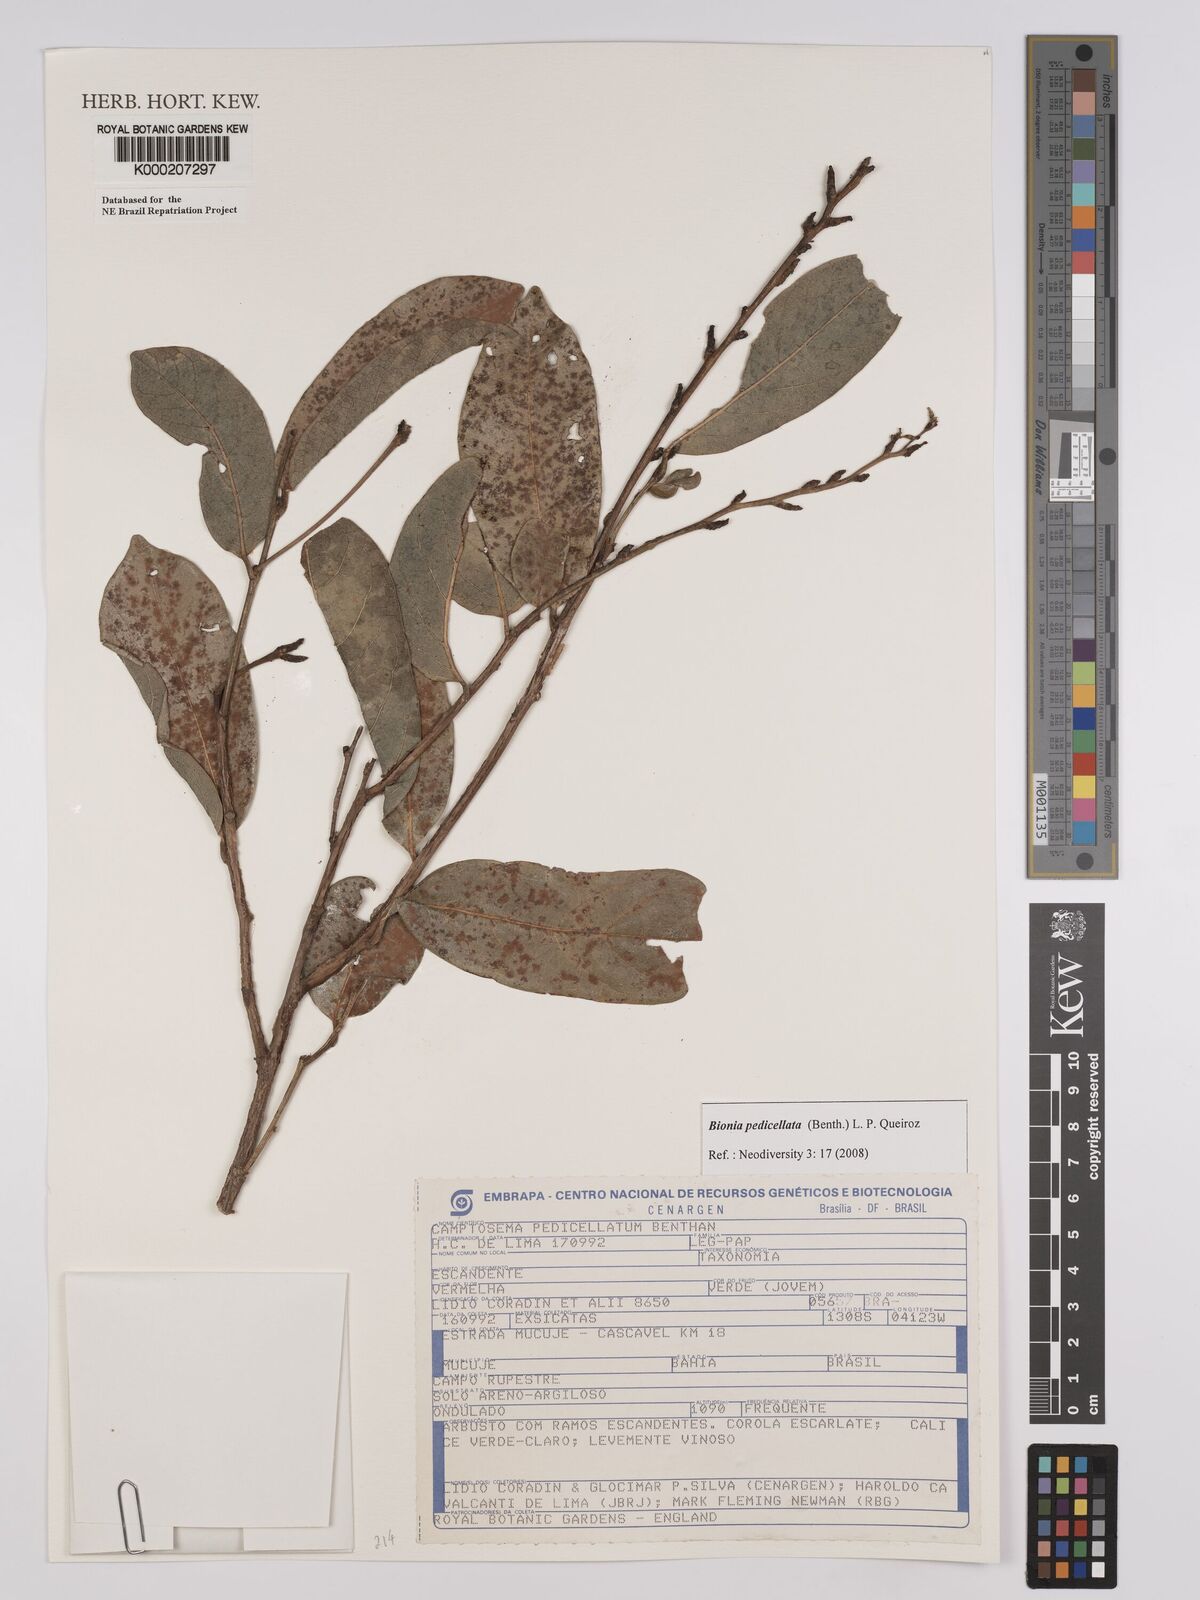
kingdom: Plantae
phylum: Tracheophyta
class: Magnoliopsida
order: Fabales
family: Fabaceae
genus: Camptosema
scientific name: Camptosema pedicellatum
